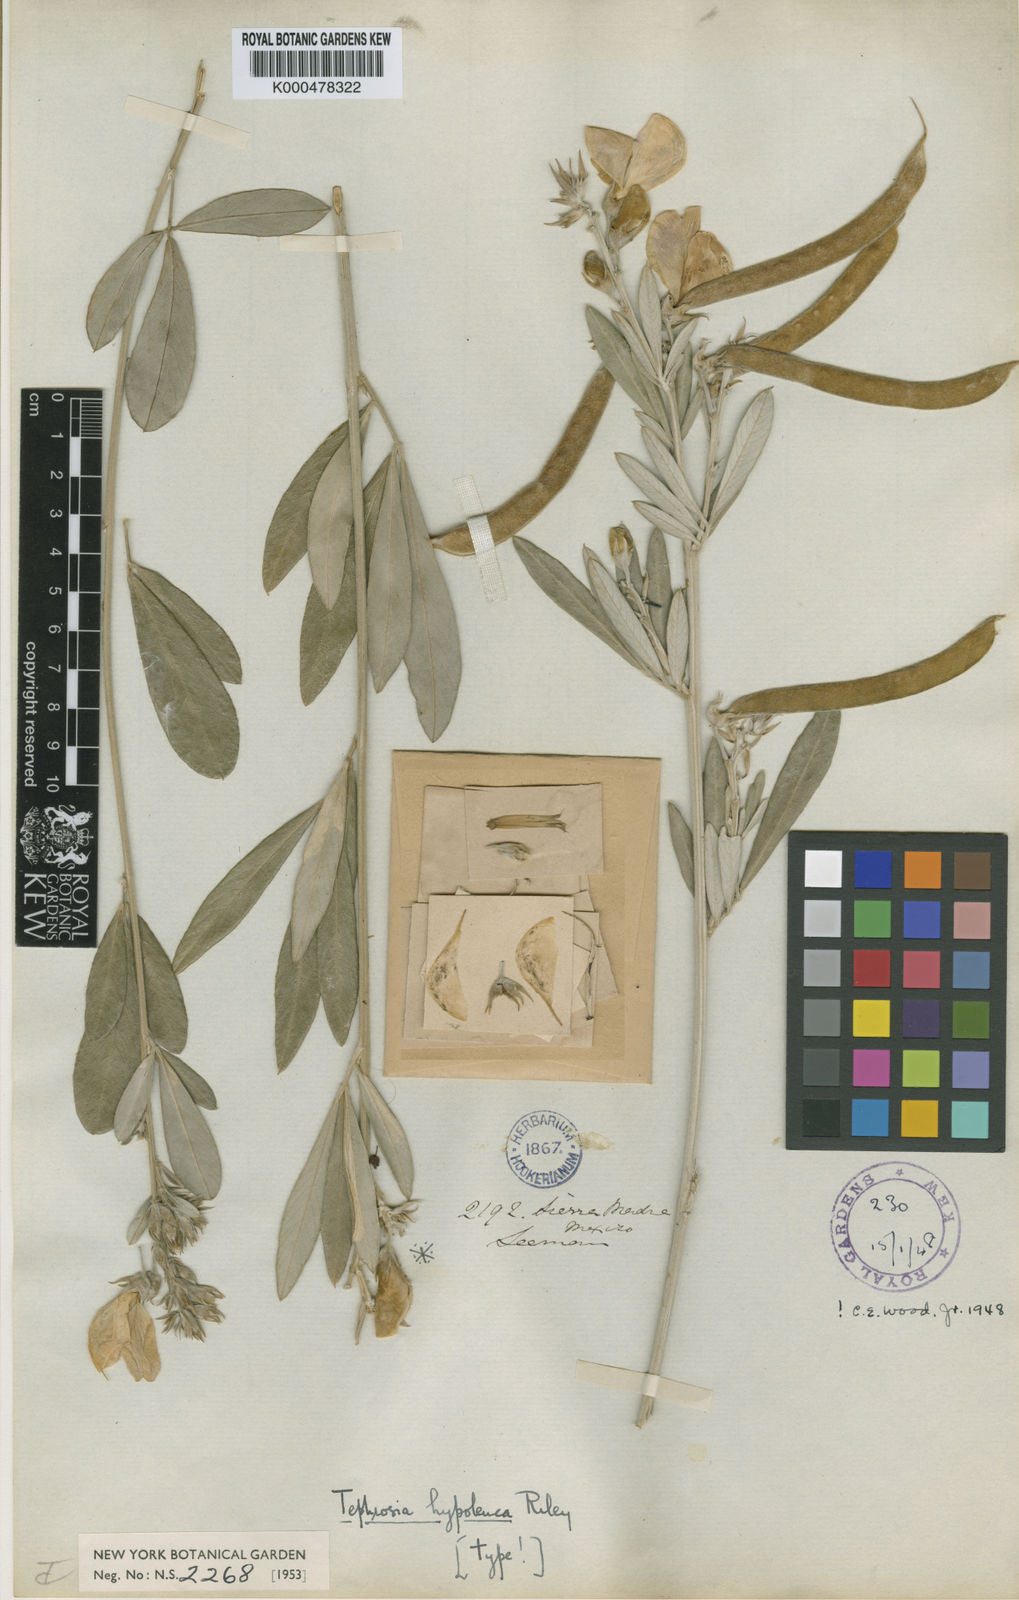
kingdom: Plantae
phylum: Tracheophyta
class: Magnoliopsida
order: Fabales
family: Fabaceae
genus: Tephrosia
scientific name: Tephrosia hypoleuca
